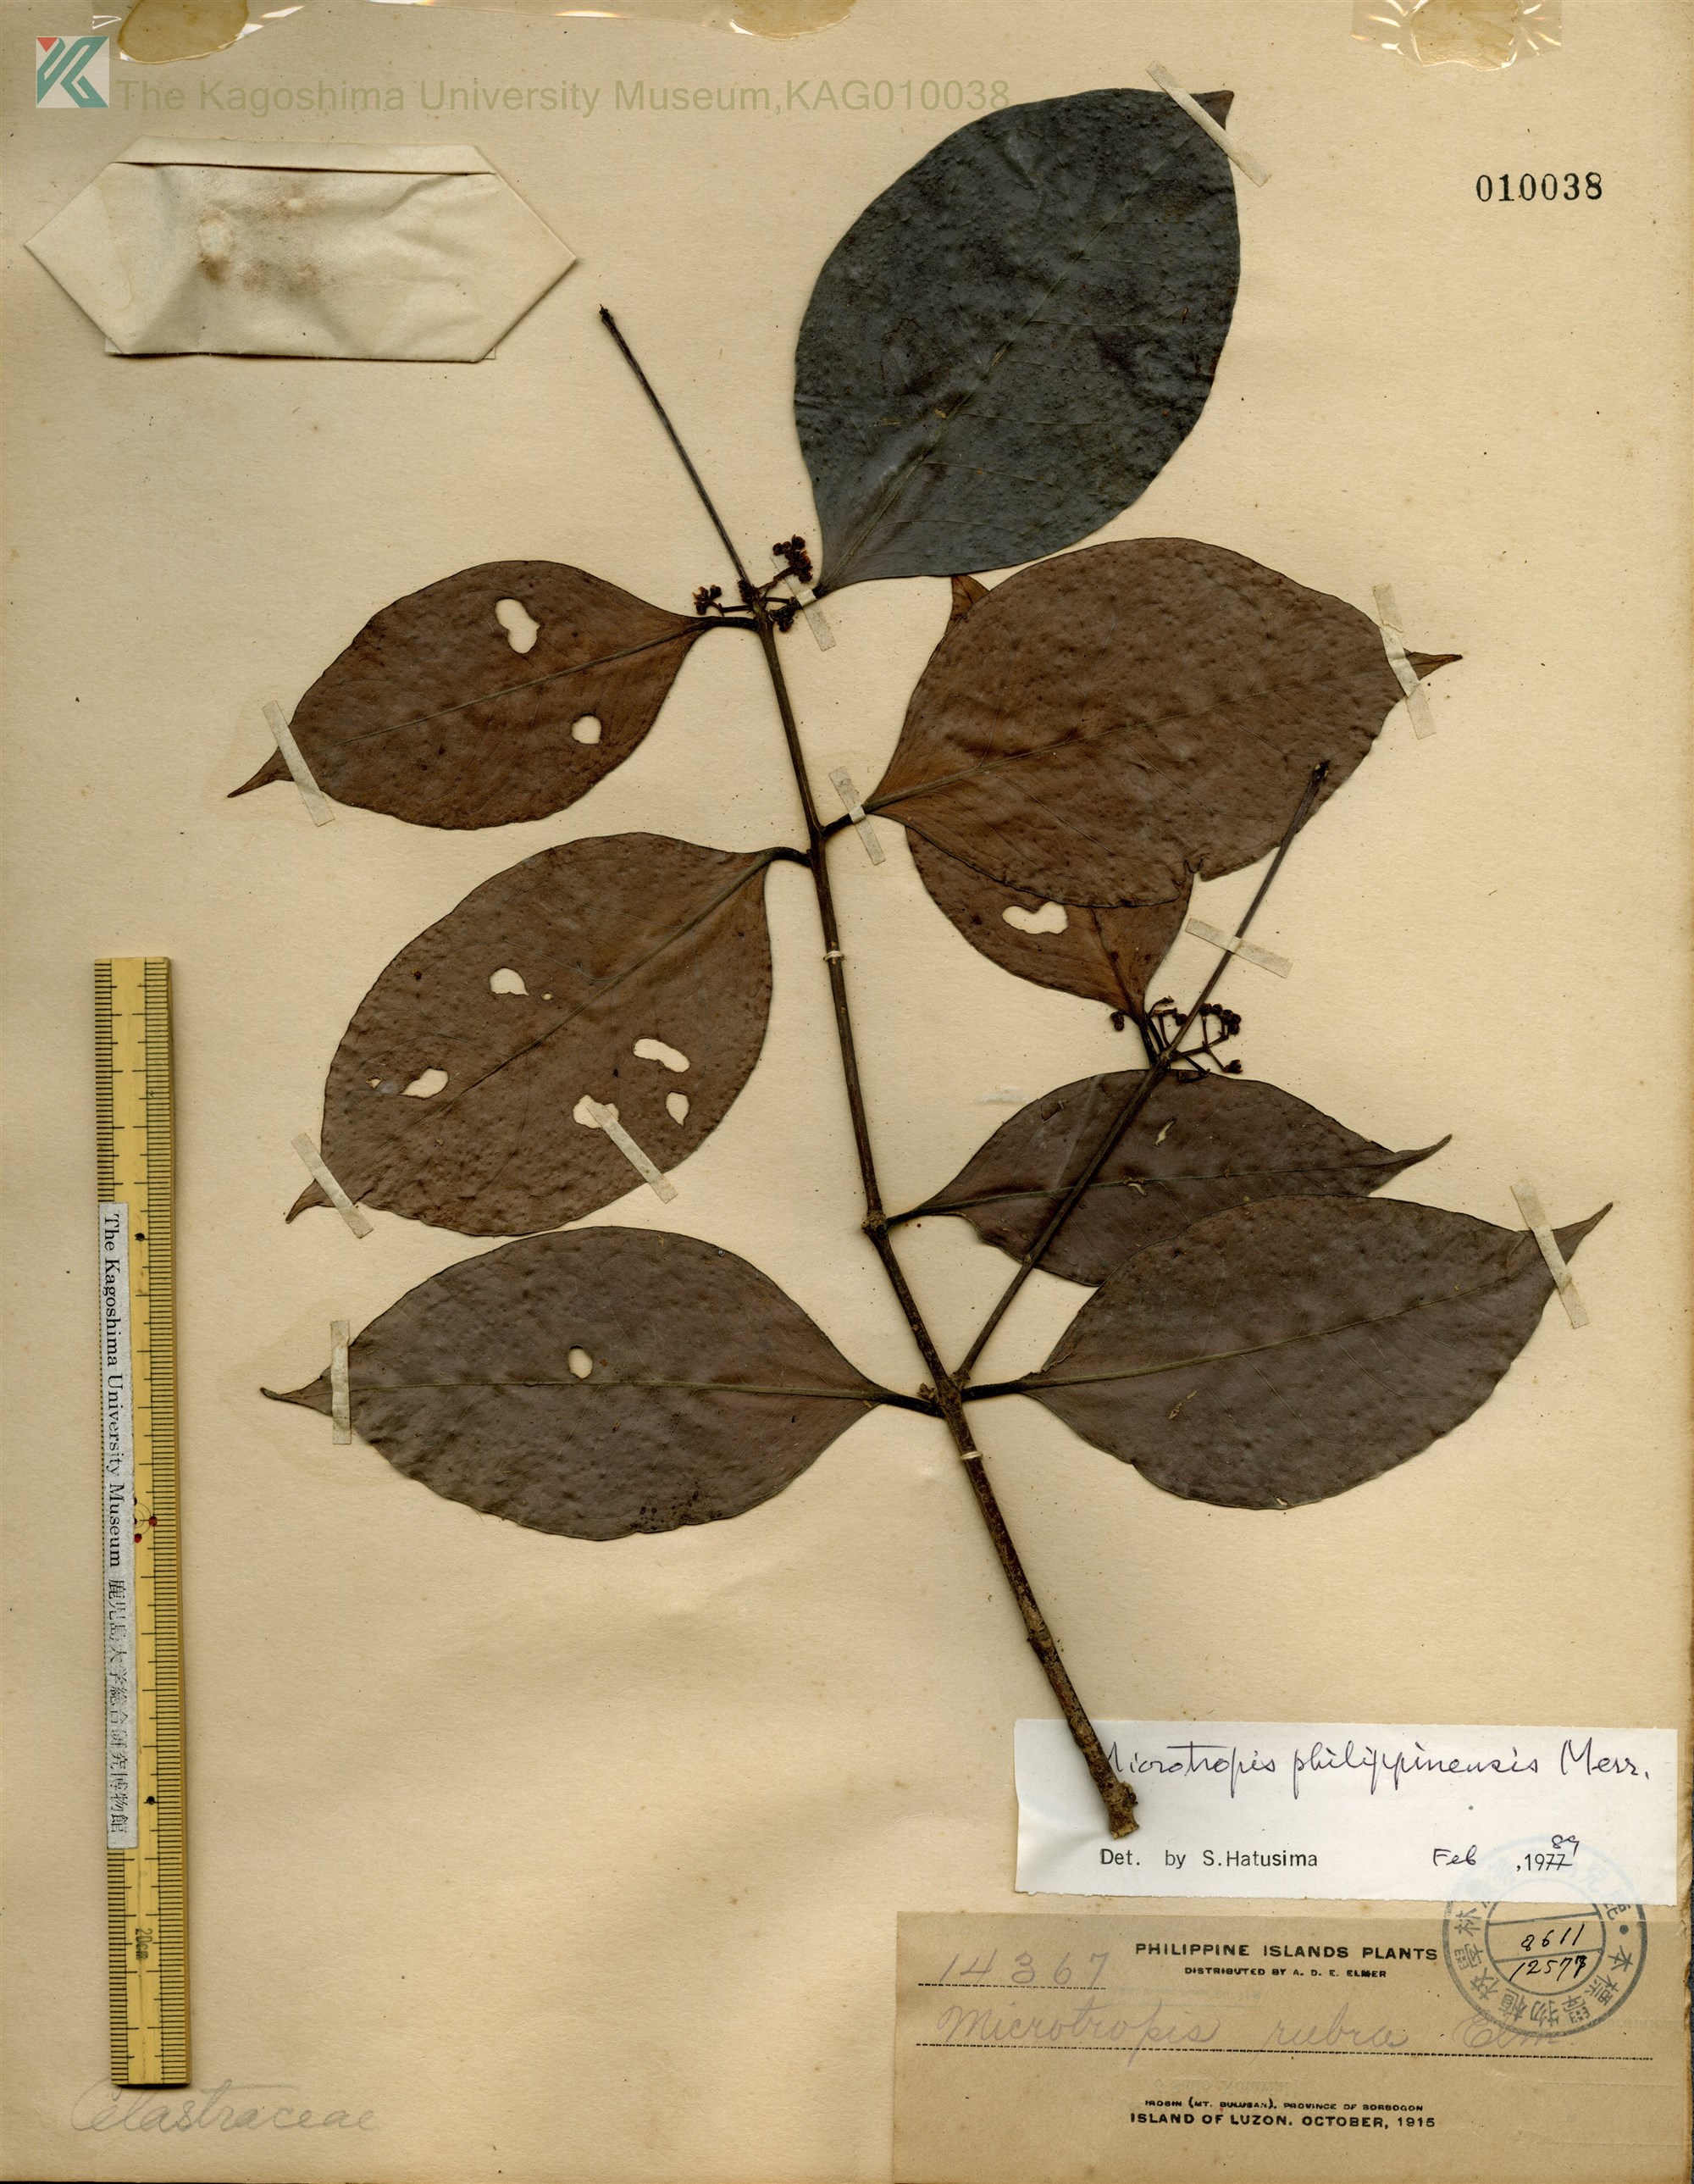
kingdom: Plantae
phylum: Tracheophyta
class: Magnoliopsida
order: Celastrales
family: Celastraceae
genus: Microtropis
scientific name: Microtropis platyphylla
